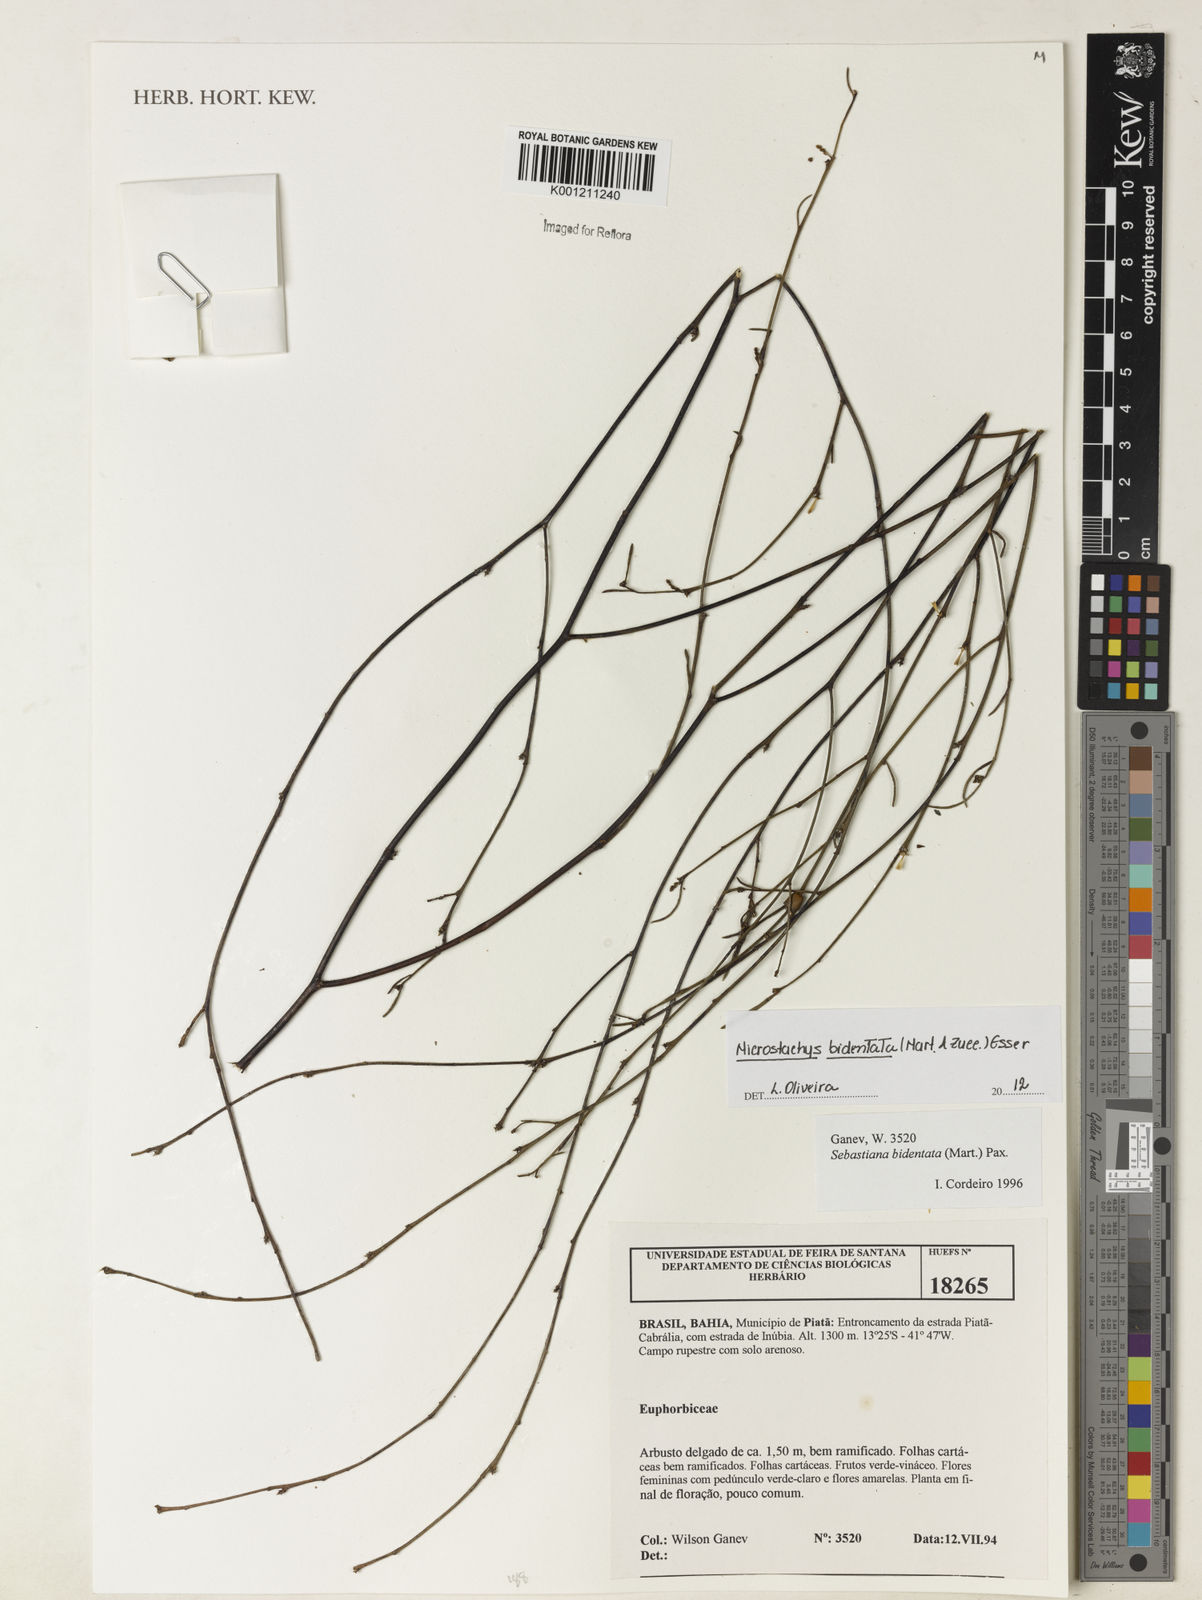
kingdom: Plantae
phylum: Tracheophyta
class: Magnoliopsida
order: Malpighiales
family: Euphorbiaceae
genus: Microstachys
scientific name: Microstachys bidentata
